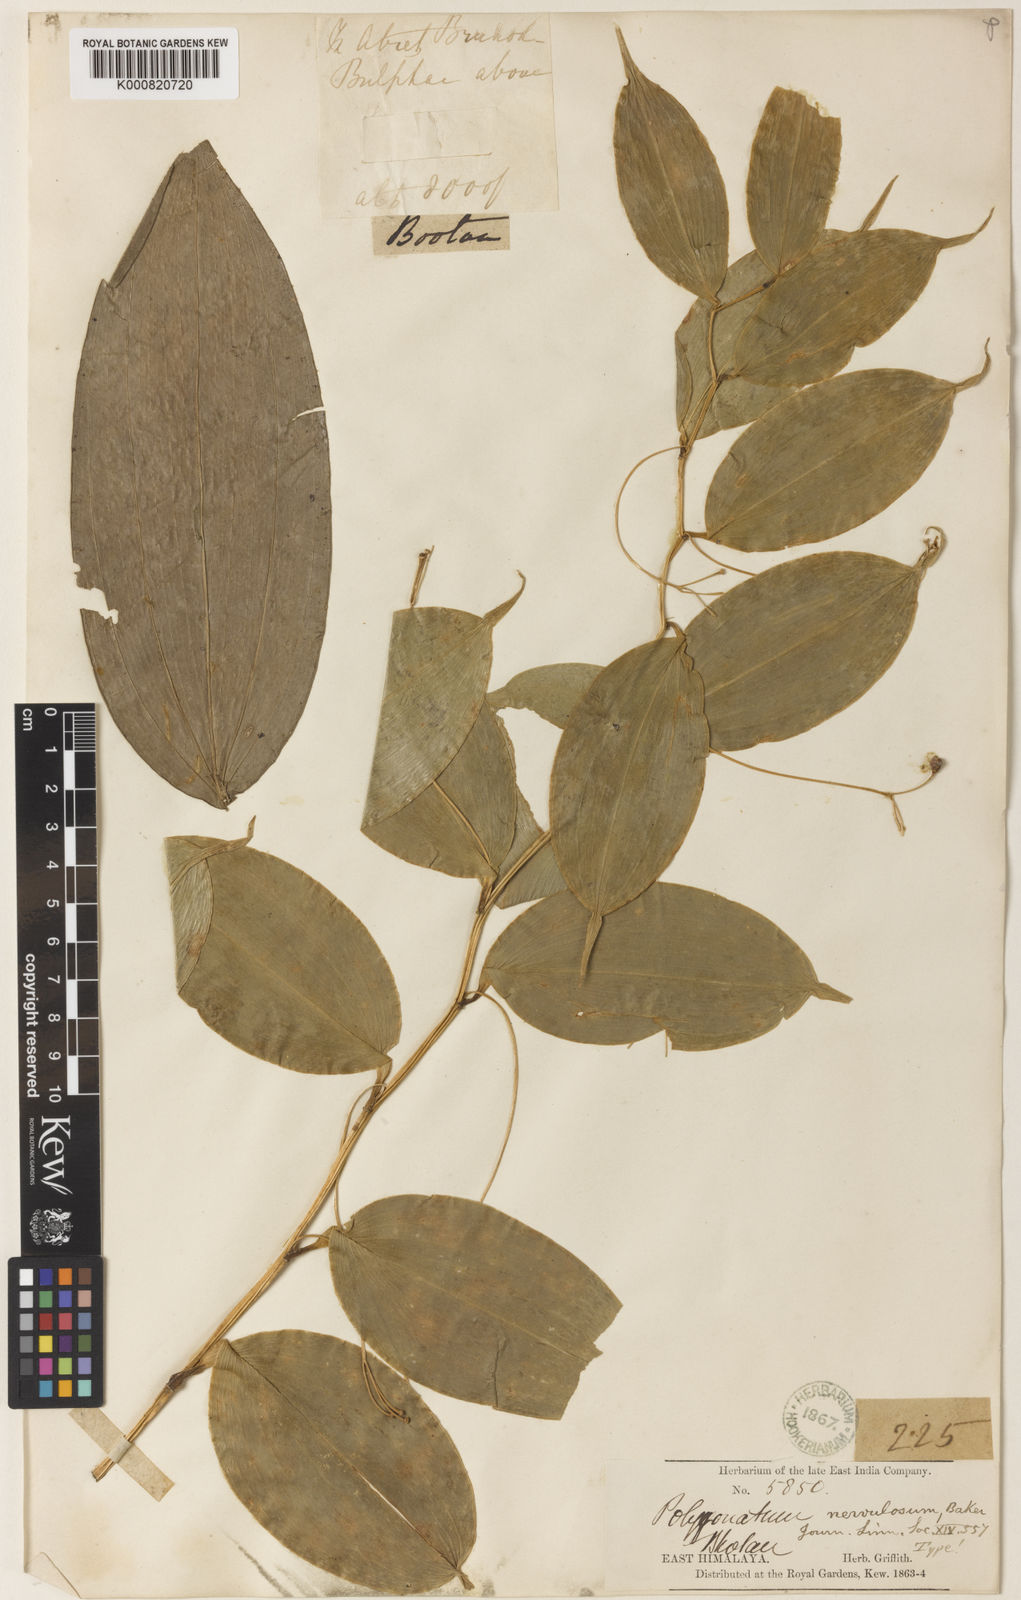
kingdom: Plantae
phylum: Tracheophyta
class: Liliopsida
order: Asparagales
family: Asparagaceae
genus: Polygonatum
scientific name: Polygonatum nervulosum
